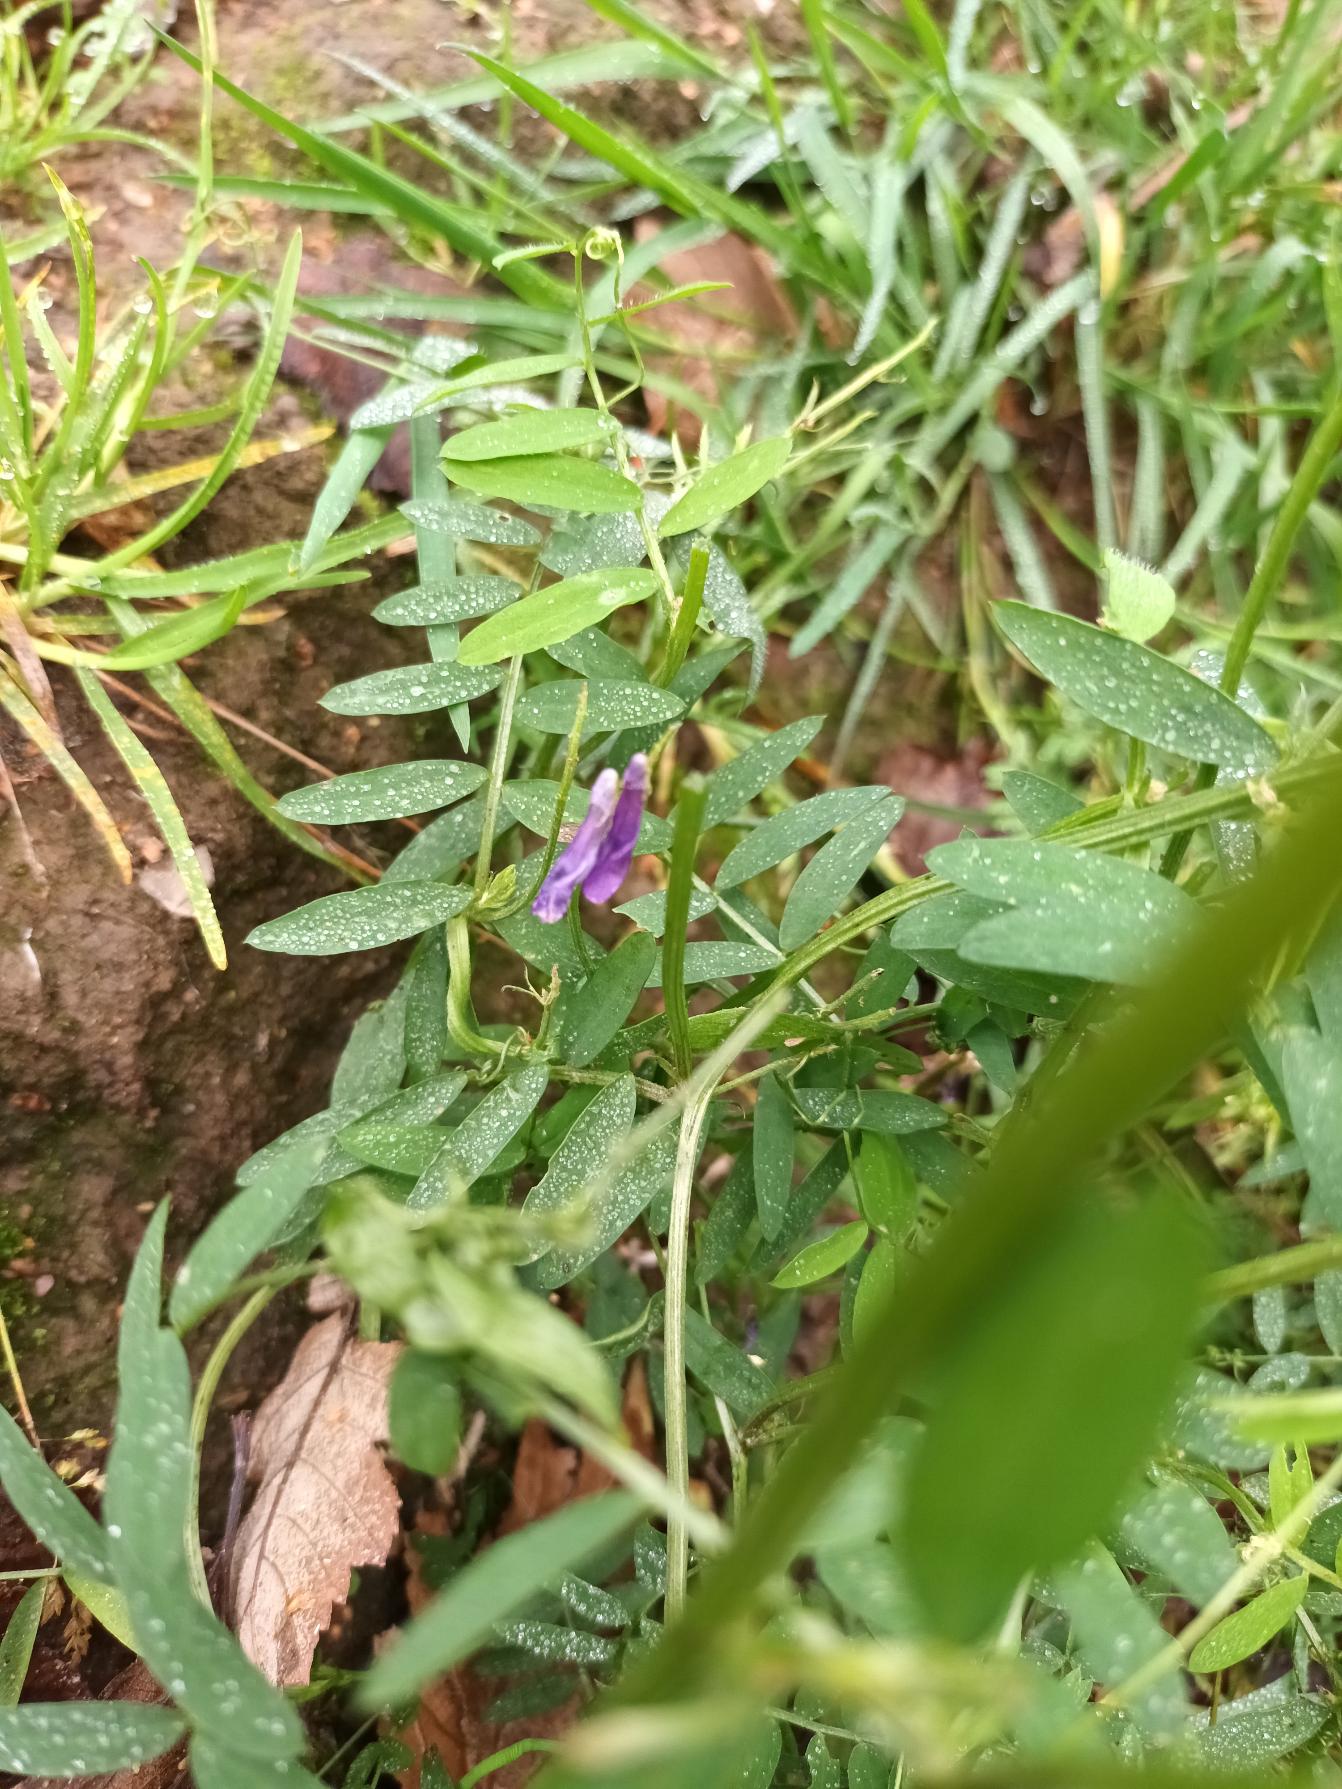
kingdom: Plantae
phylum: Tracheophyta
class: Magnoliopsida
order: Fabales
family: Fabaceae
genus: Vicia
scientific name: Vicia villosa
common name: Sand-vikke
